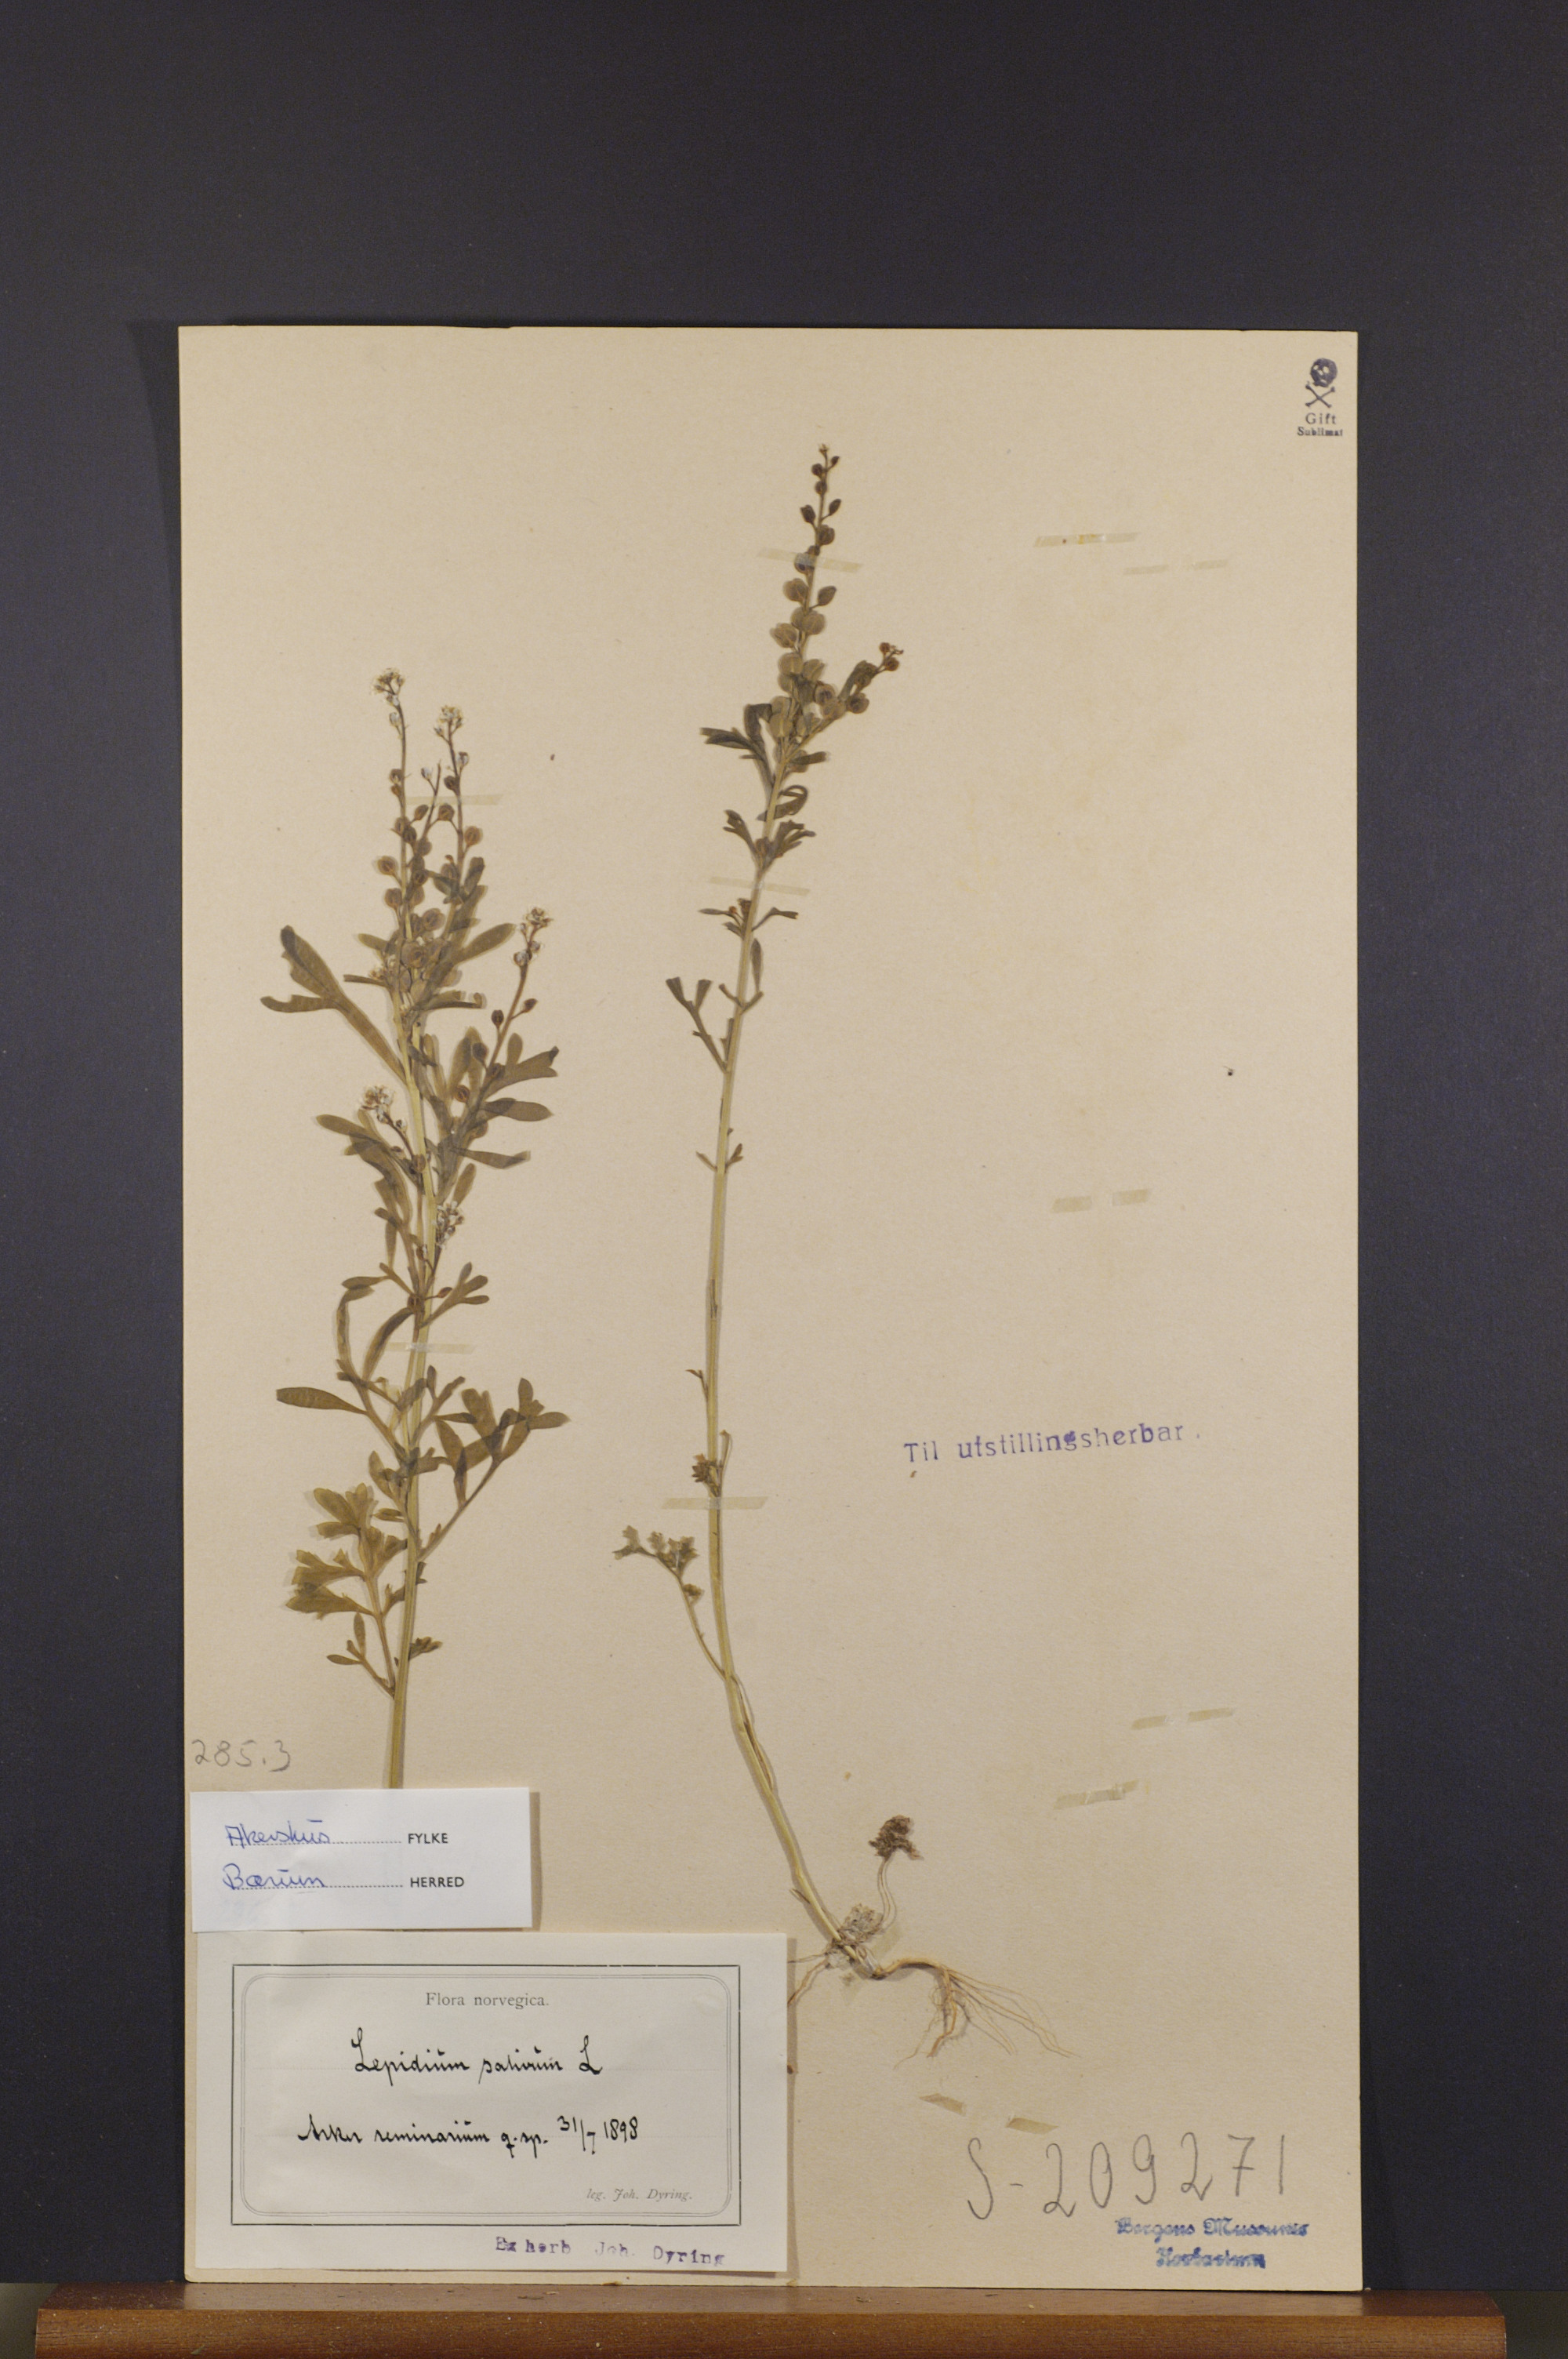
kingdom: Plantae
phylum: Tracheophyta
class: Magnoliopsida
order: Brassicales
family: Brassicaceae
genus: Lepidium
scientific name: Lepidium sativum
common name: Garden cress
